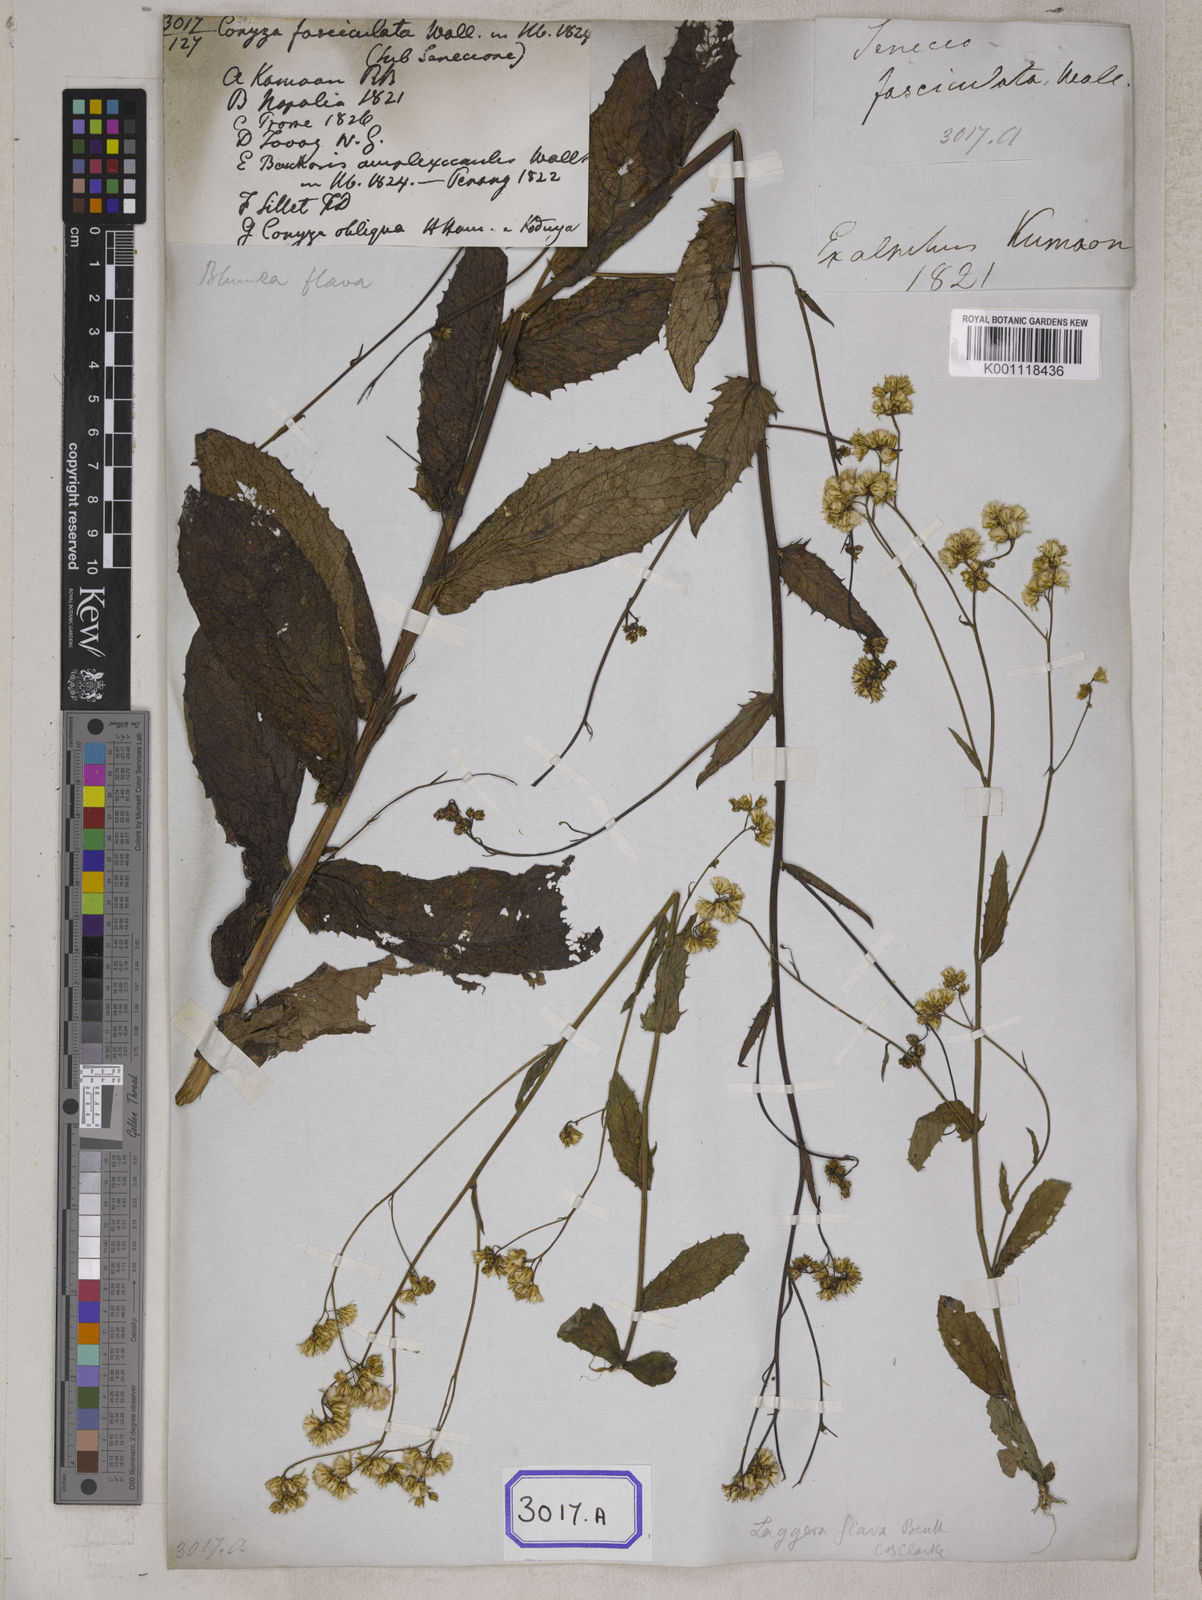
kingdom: Plantae
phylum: Tracheophyta
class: Magnoliopsida
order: Asterales
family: Asteraceae
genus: Blumea
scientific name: Blumea sessiliflora
